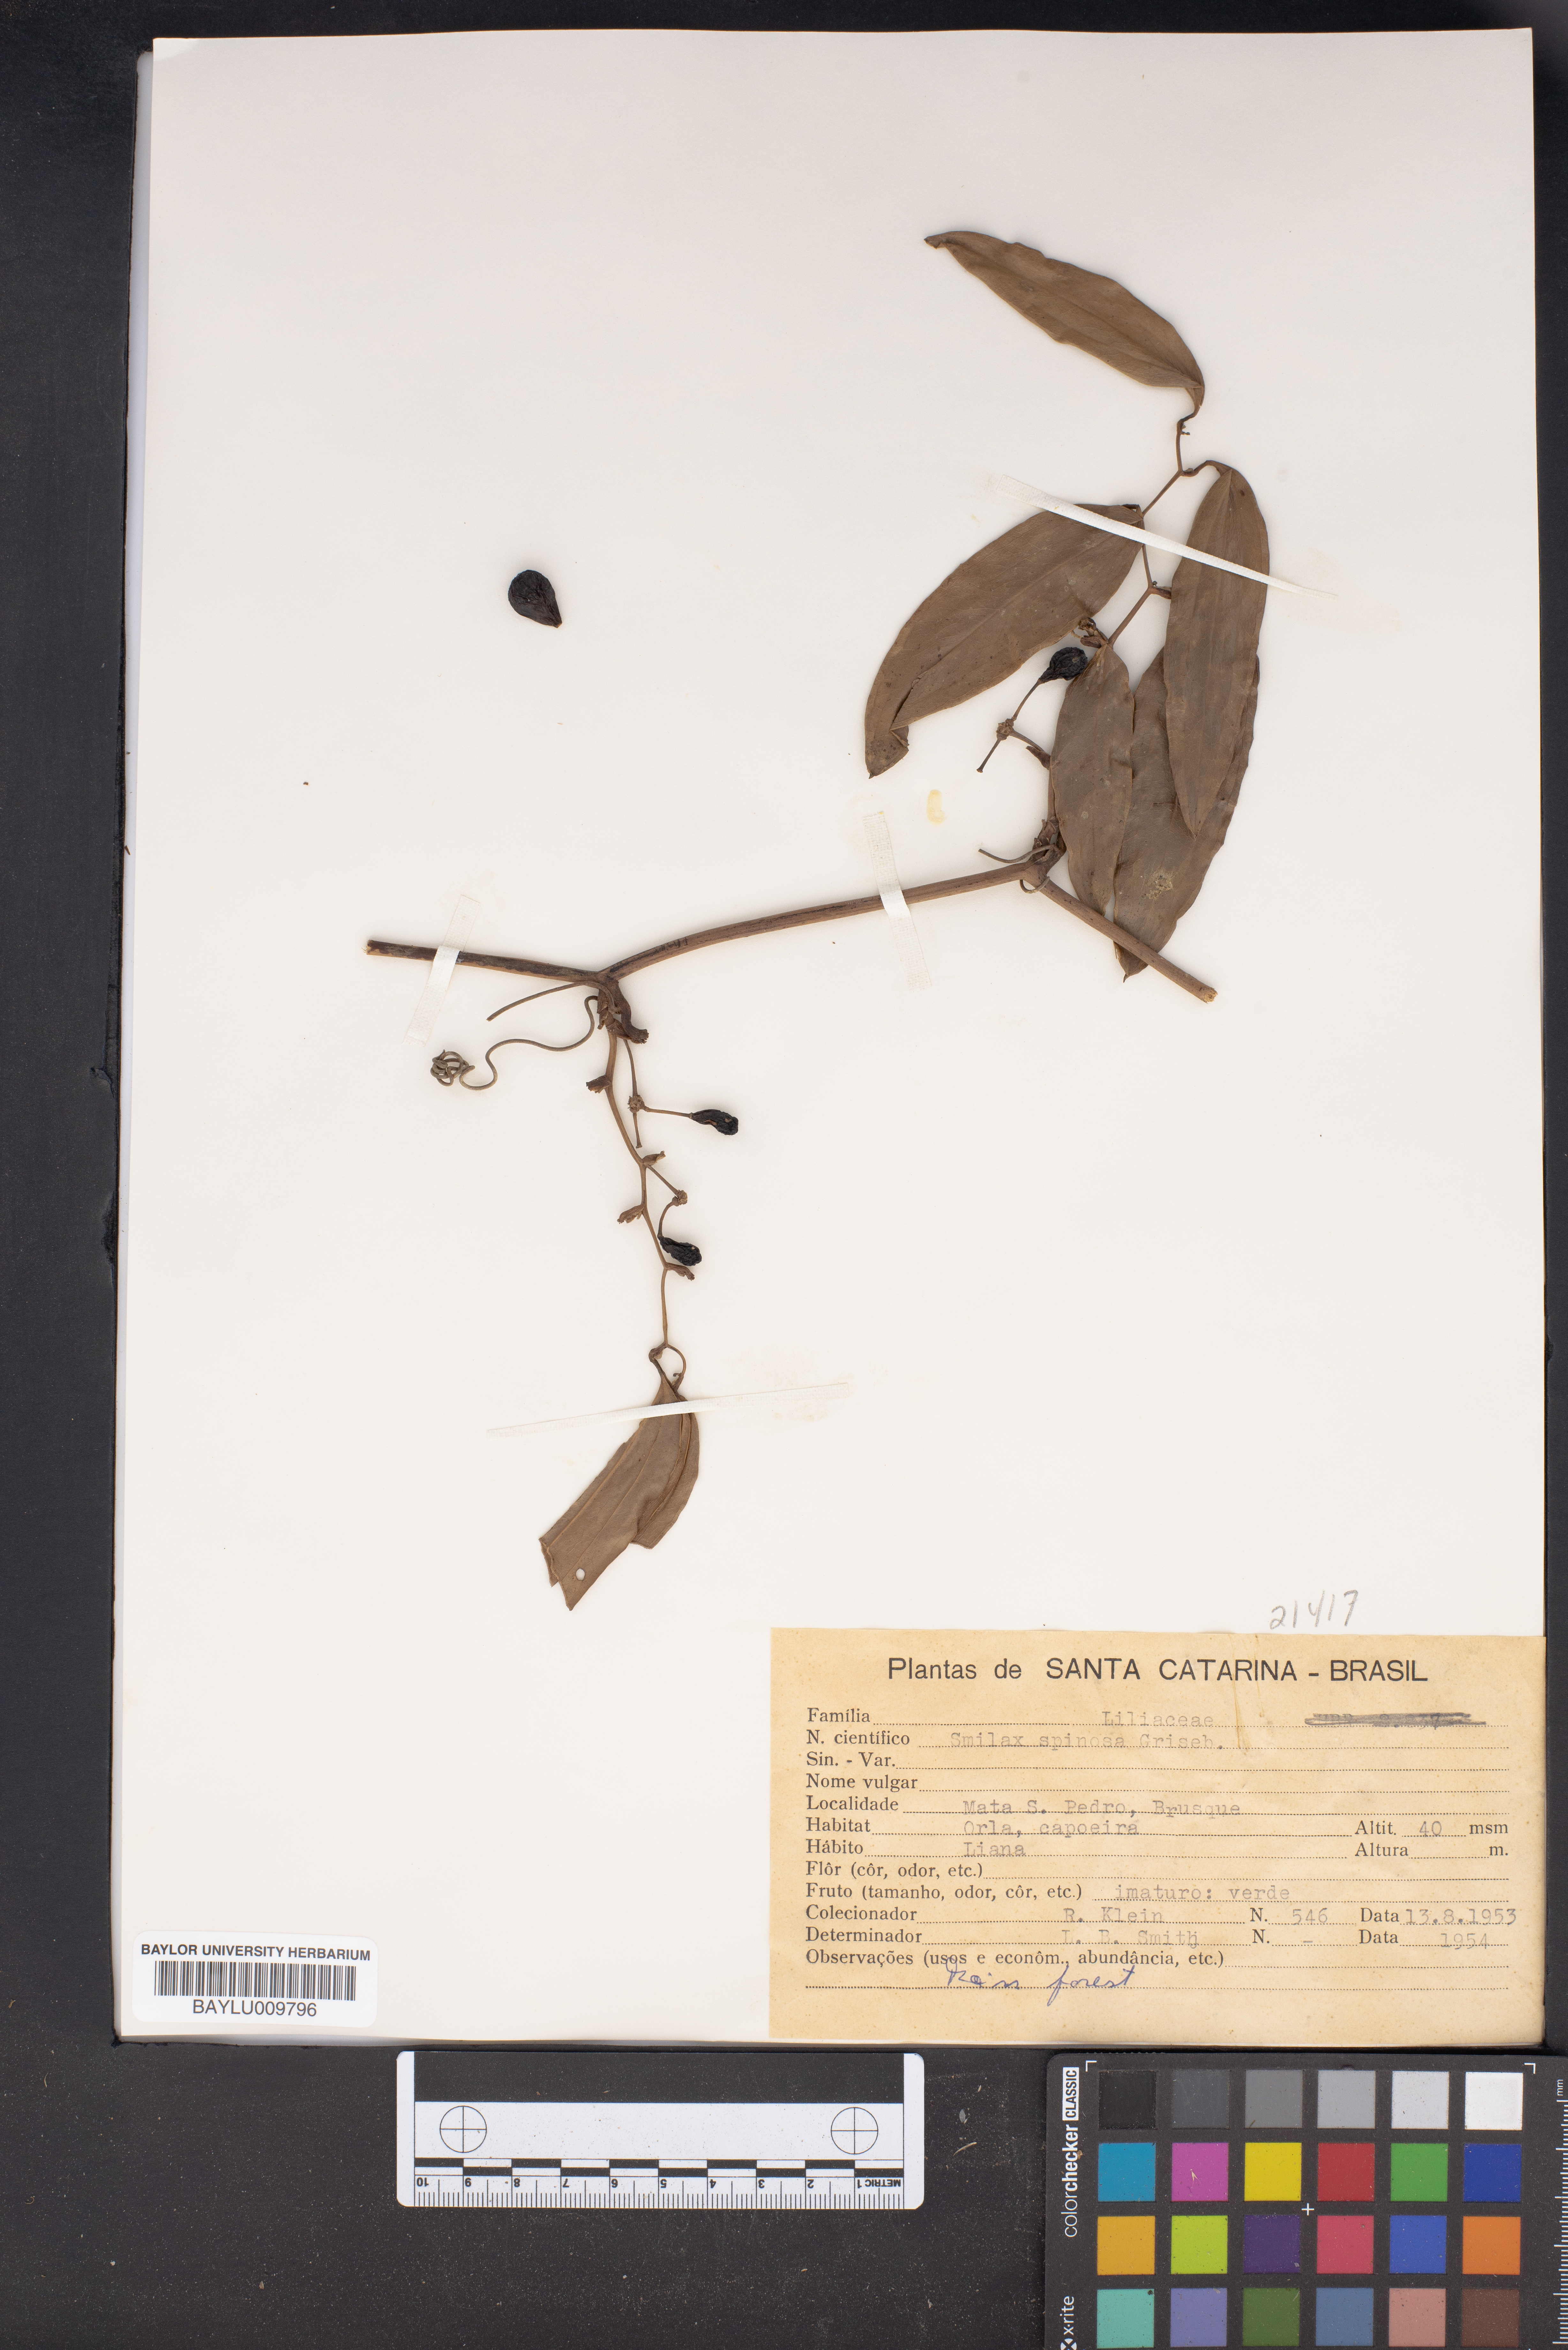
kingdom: Plantae
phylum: Tracheophyta
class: Liliopsida
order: Liliales
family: Smilacaceae
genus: Smilax
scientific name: Smilax spinosa
